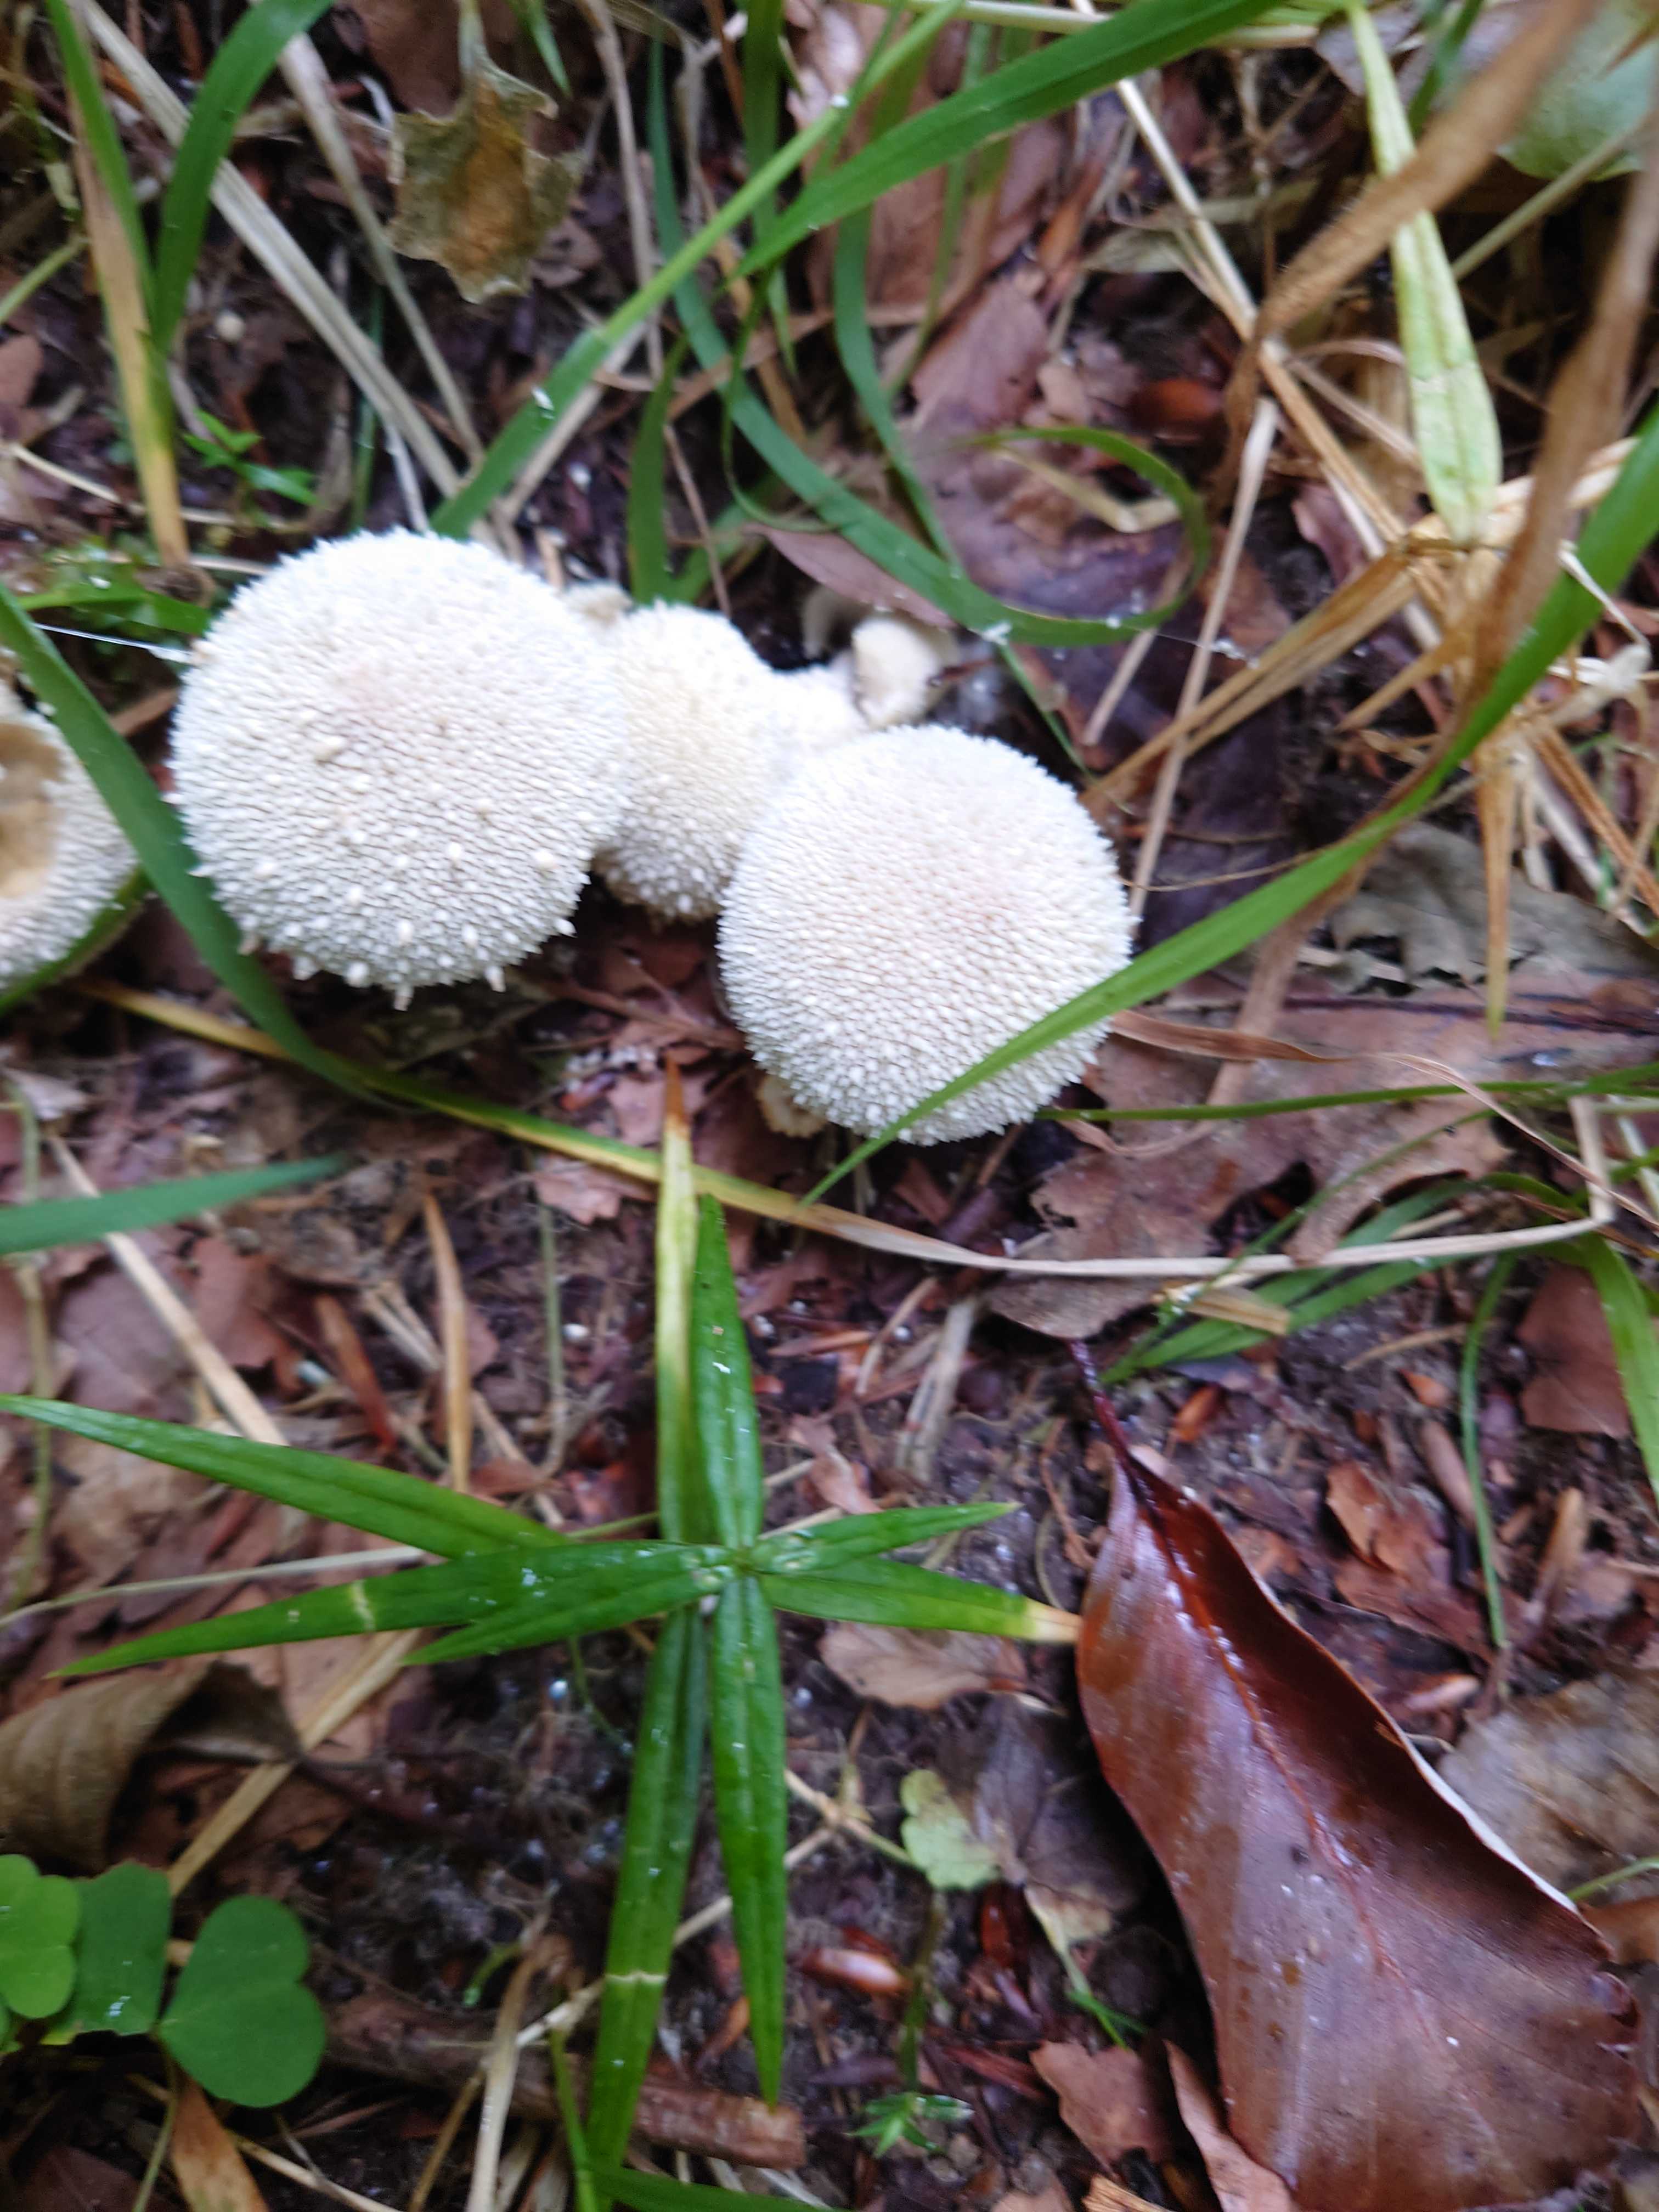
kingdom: Fungi
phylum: Basidiomycota
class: Agaricomycetes
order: Agaricales
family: Lycoperdaceae
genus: Lycoperdon
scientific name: Lycoperdon perlatum
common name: krystal-støvbold
